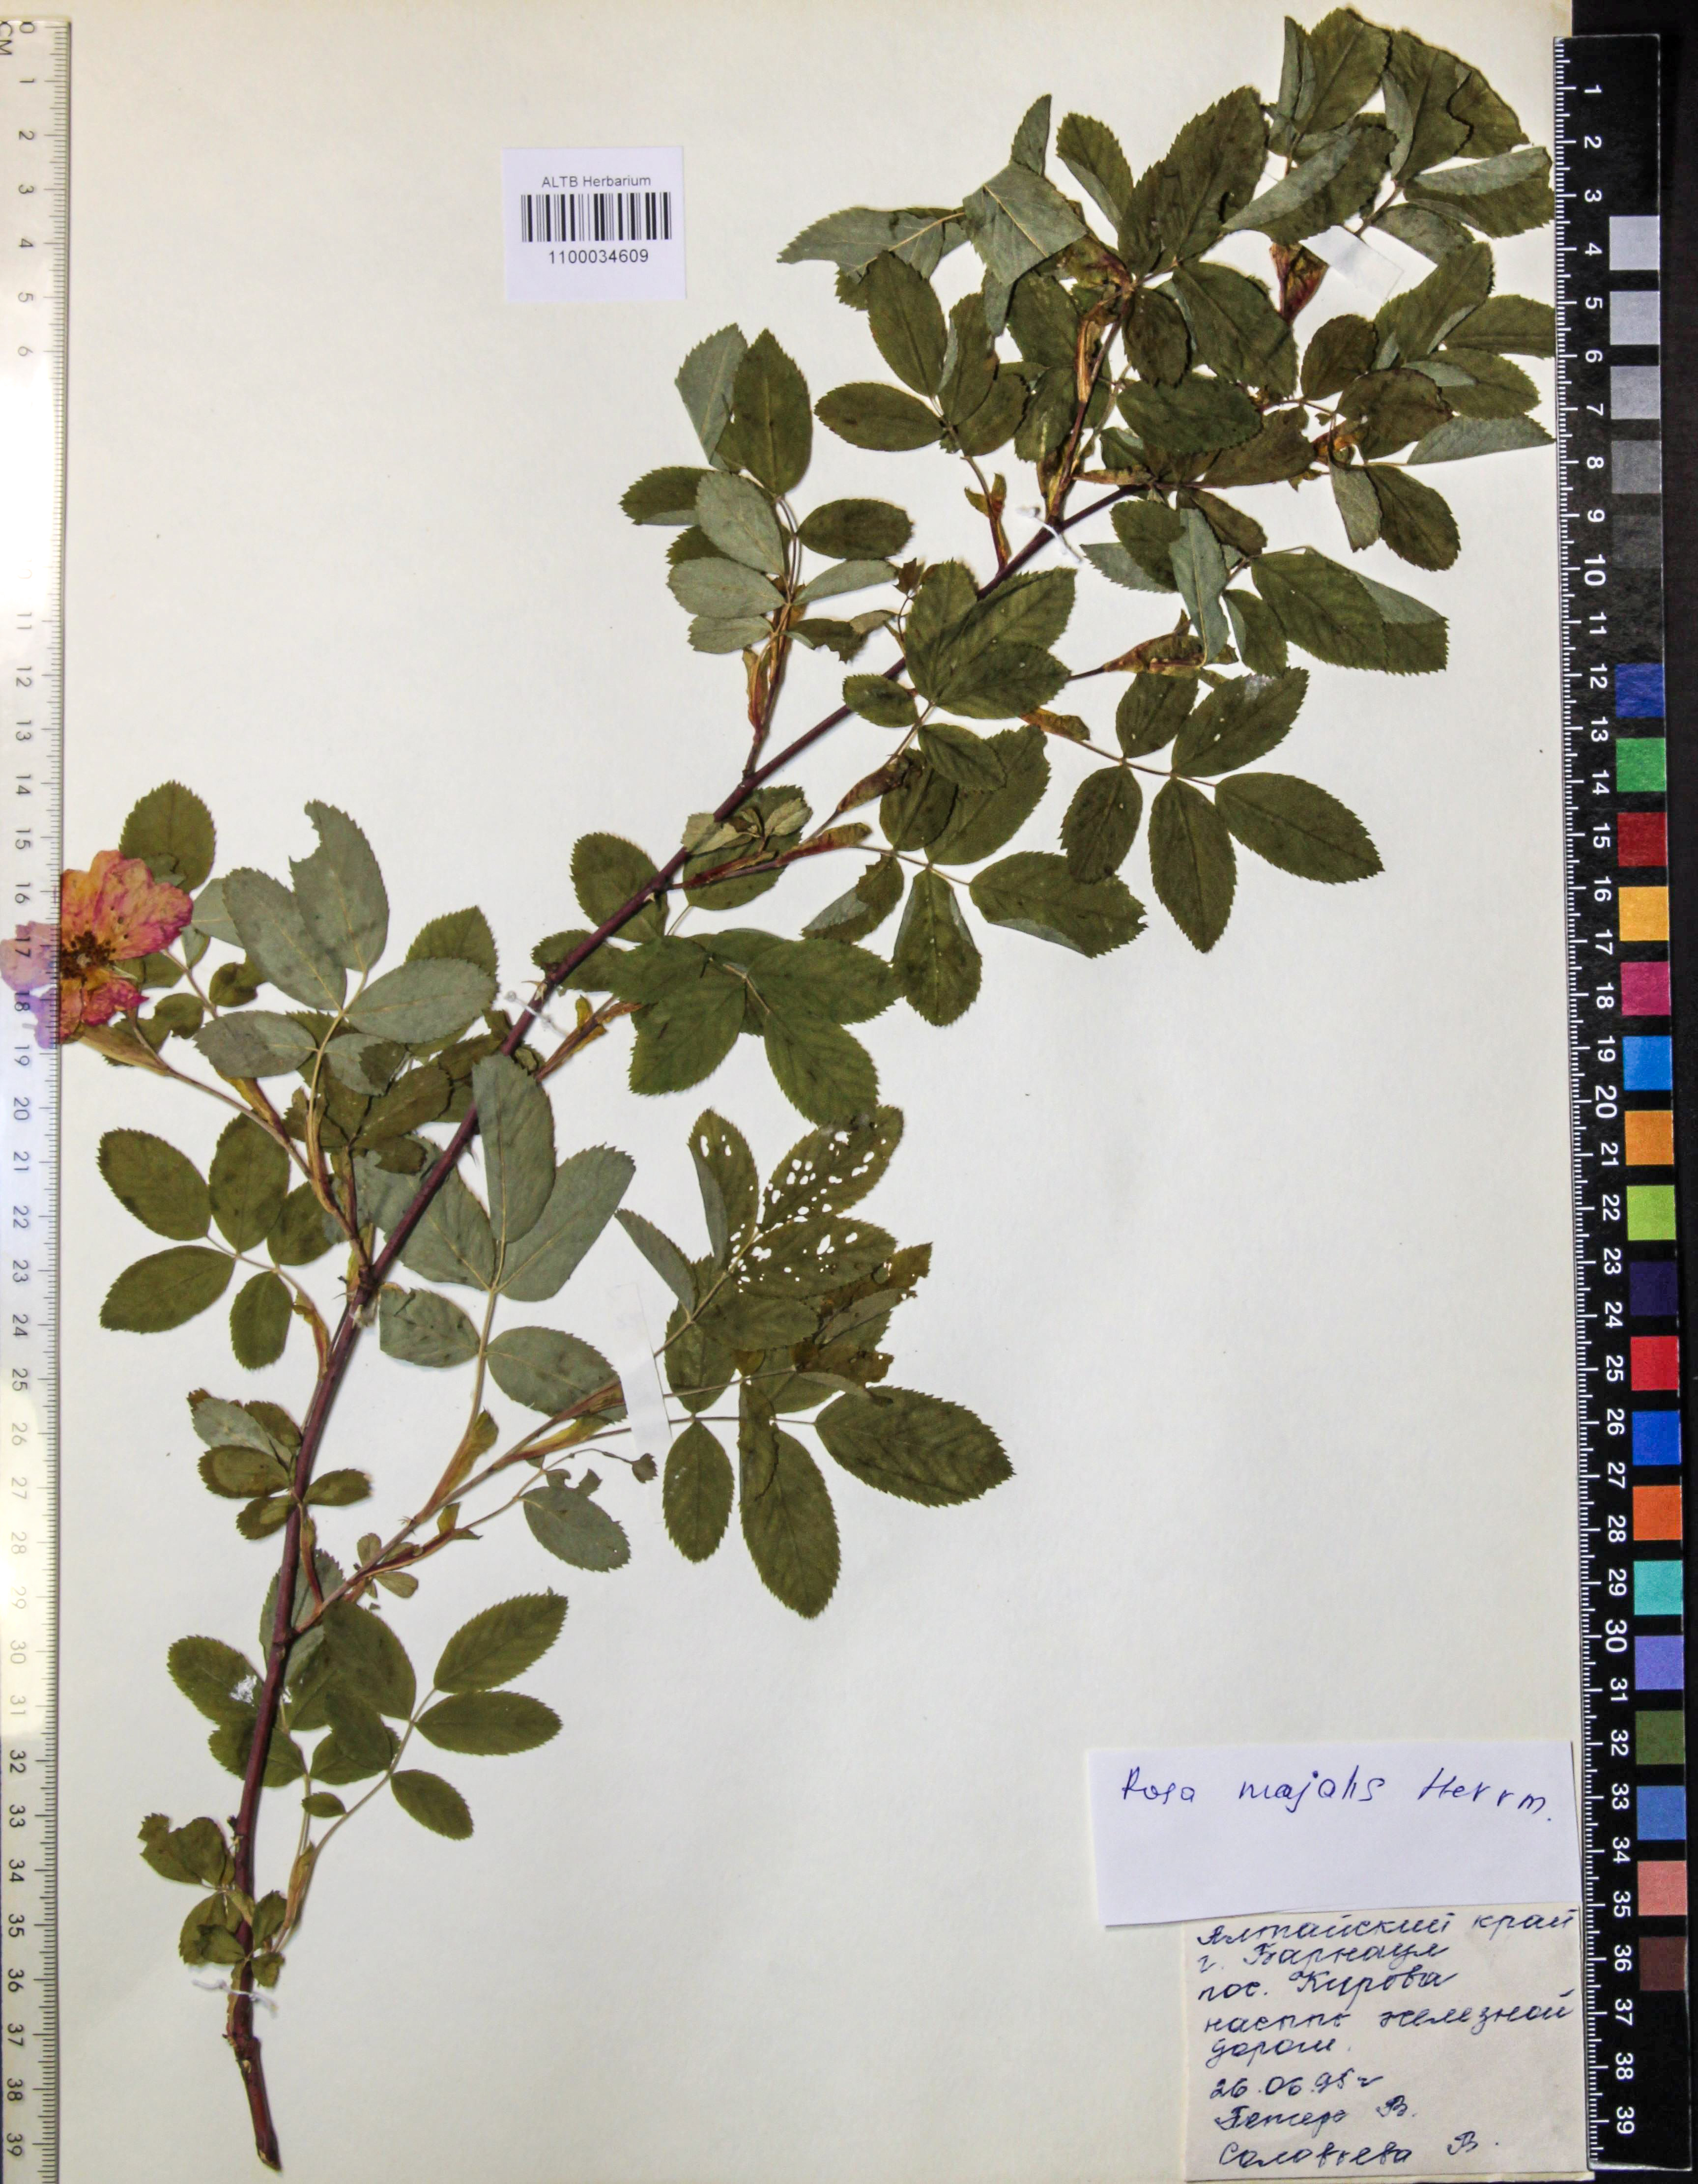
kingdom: Plantae
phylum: Tracheophyta
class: Magnoliopsida
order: Rosales
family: Rosaceae
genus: Rosa
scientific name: Rosa majalis
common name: Cinnamon rose
